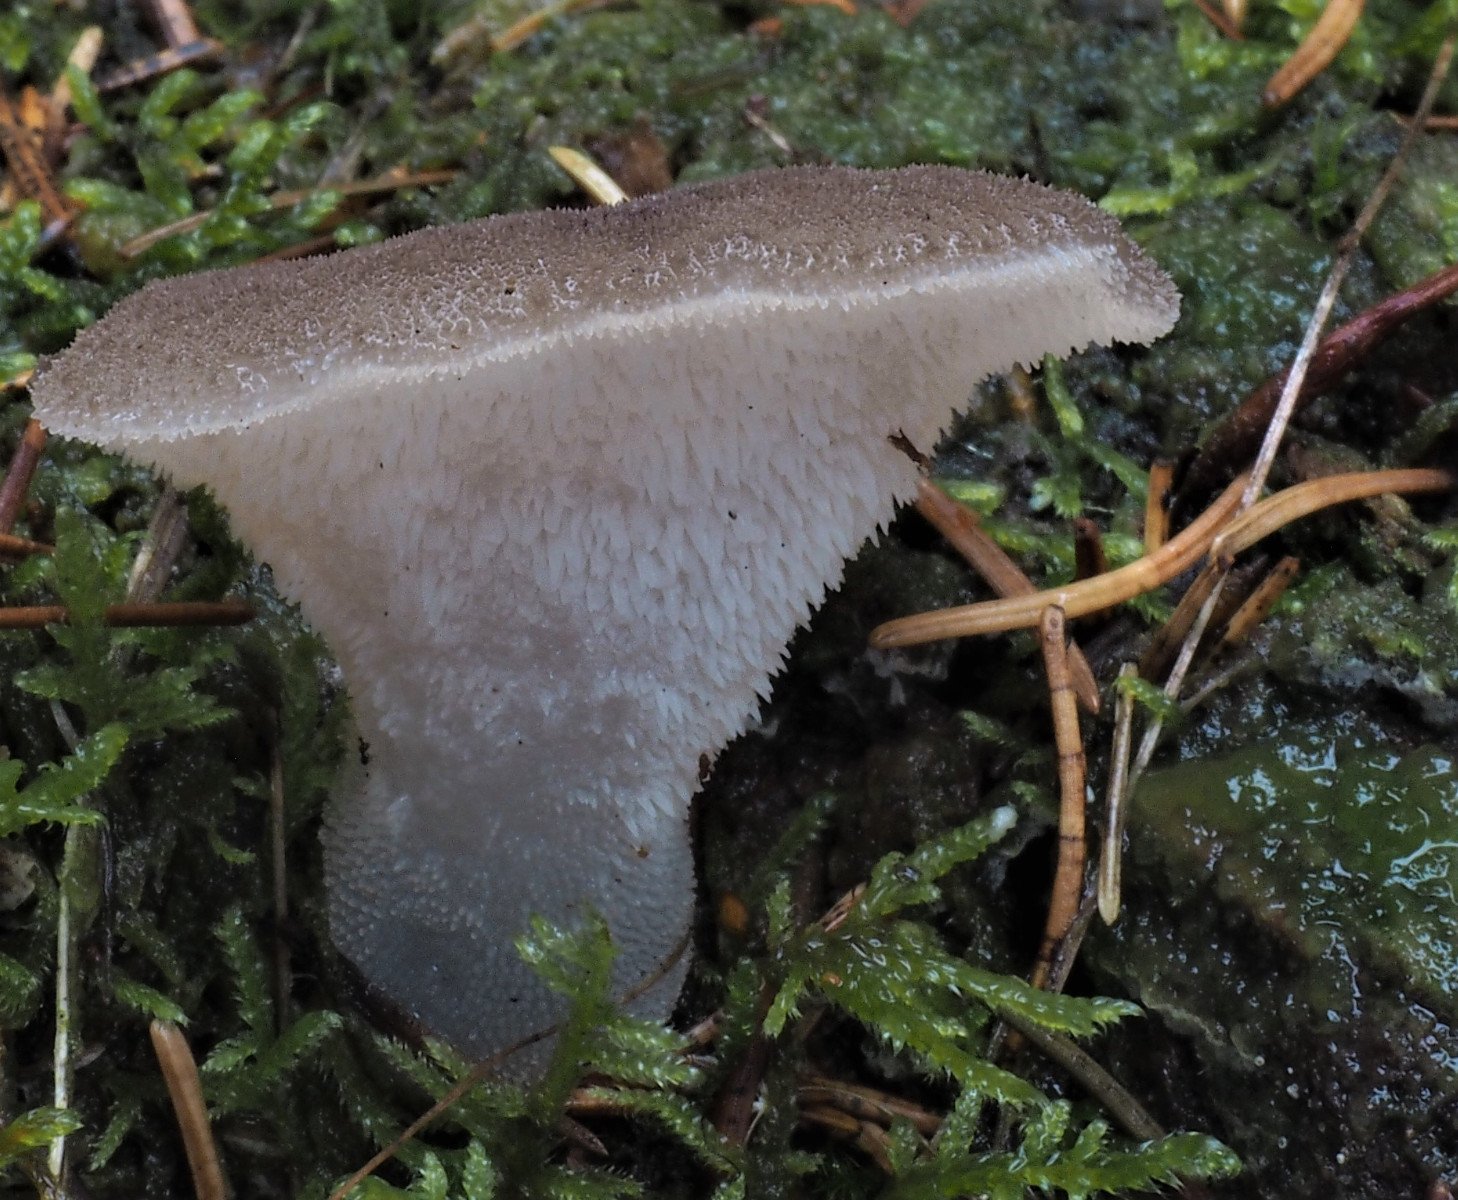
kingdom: Fungi
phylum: Basidiomycota
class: Agaricomycetes
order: Auriculariales
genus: Pseudohydnum
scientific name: Pseudohydnum gelatinosum
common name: bævretand
